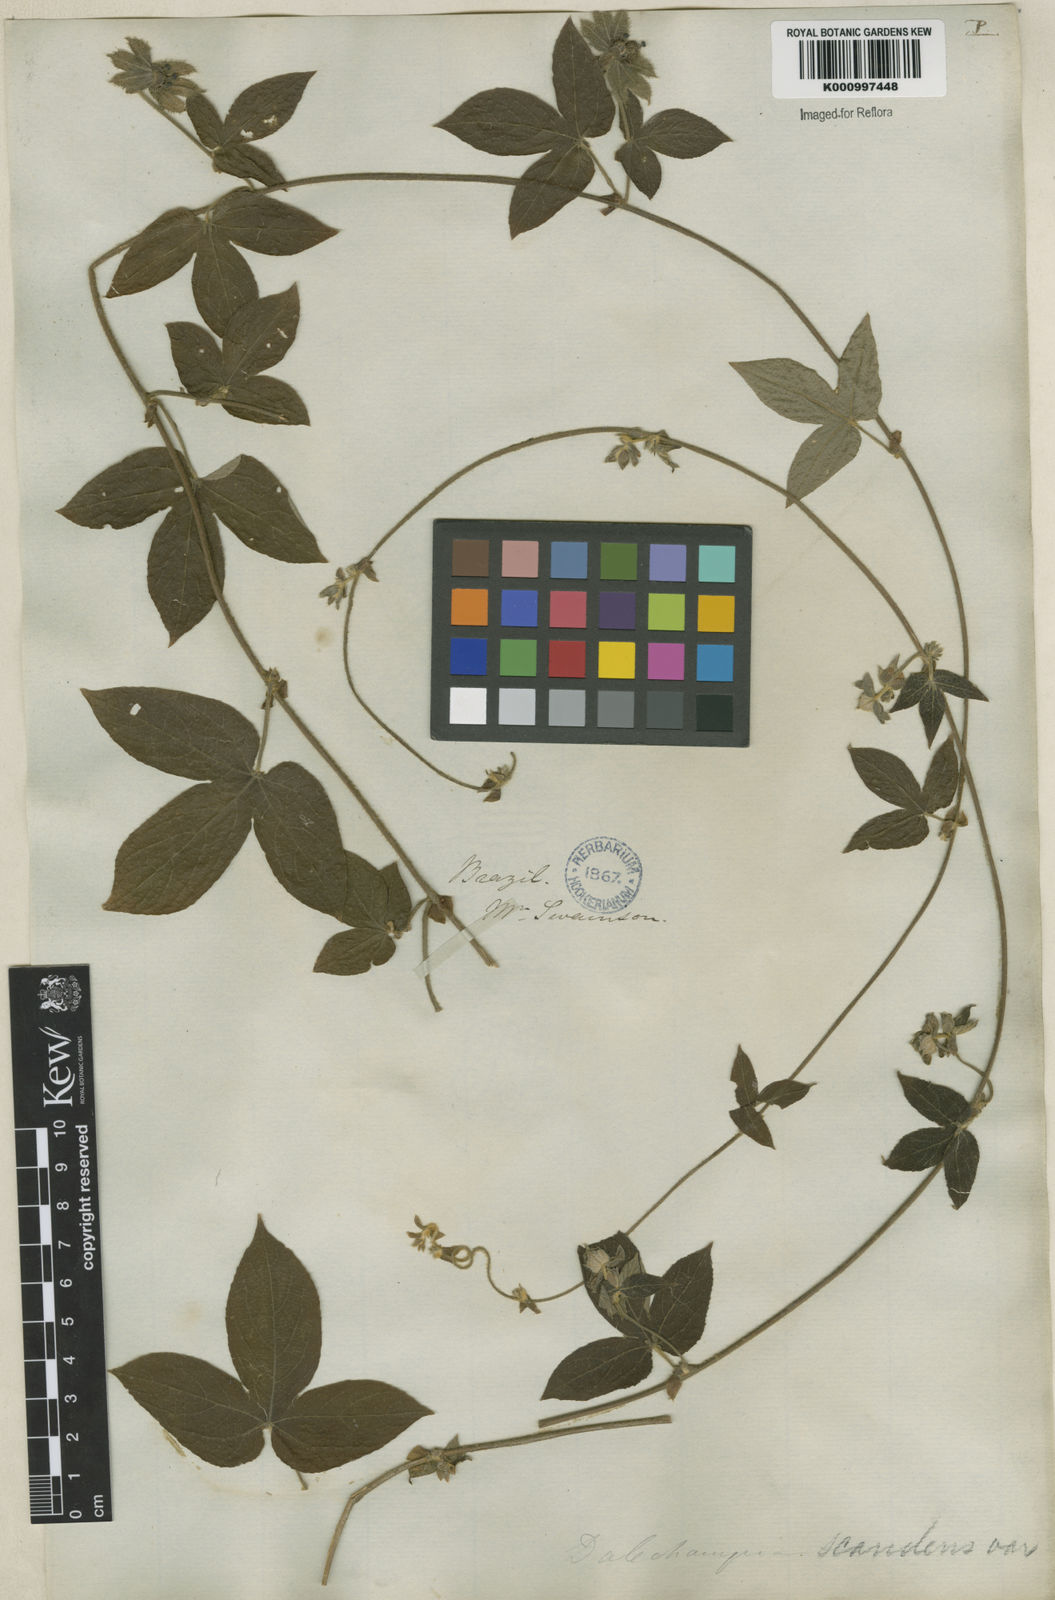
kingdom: Plantae
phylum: Tracheophyta
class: Magnoliopsida
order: Malpighiales
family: Euphorbiaceae
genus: Dalechampia
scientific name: Dalechampia scandens
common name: Spurgecreeper
